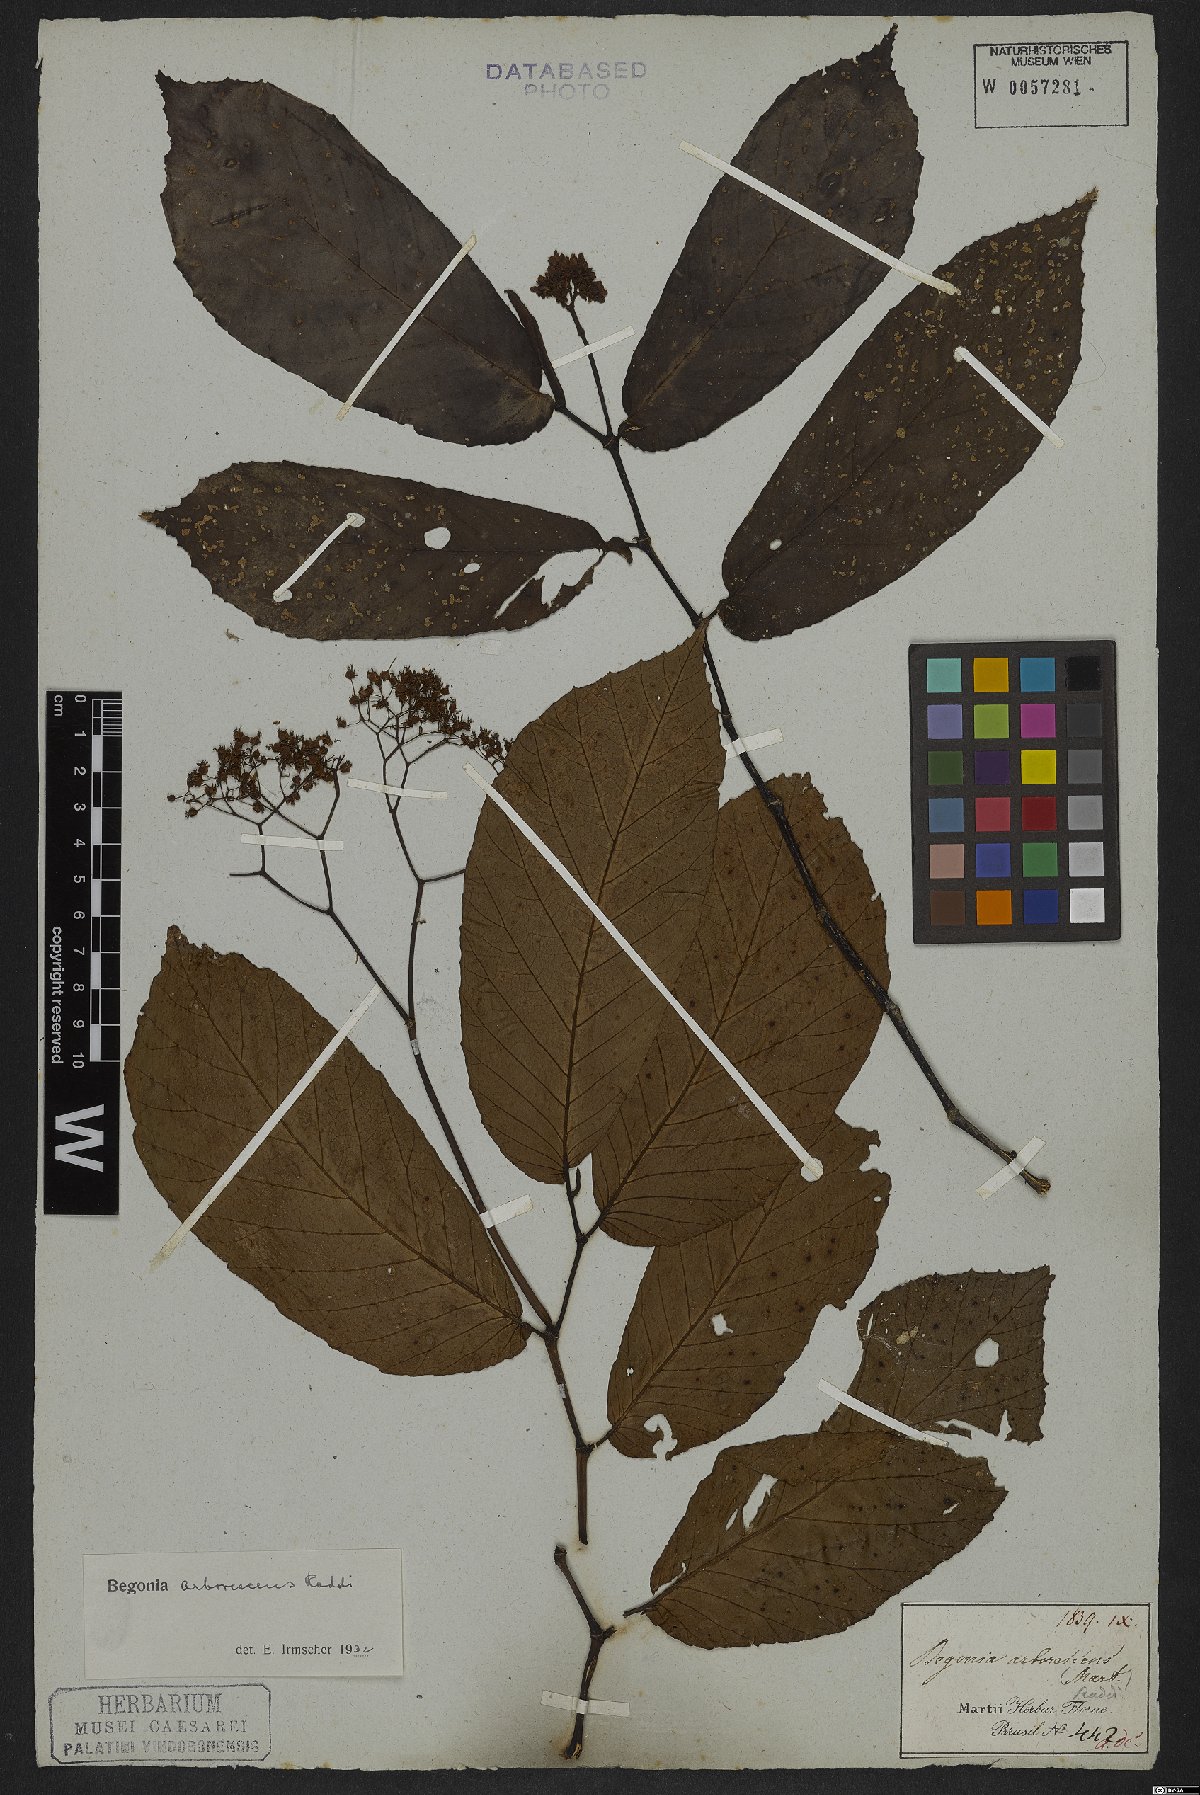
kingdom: Plantae
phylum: Tracheophyta
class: Magnoliopsida
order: Cucurbitales
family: Begoniaceae
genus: Begonia
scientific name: Begonia arborescens
